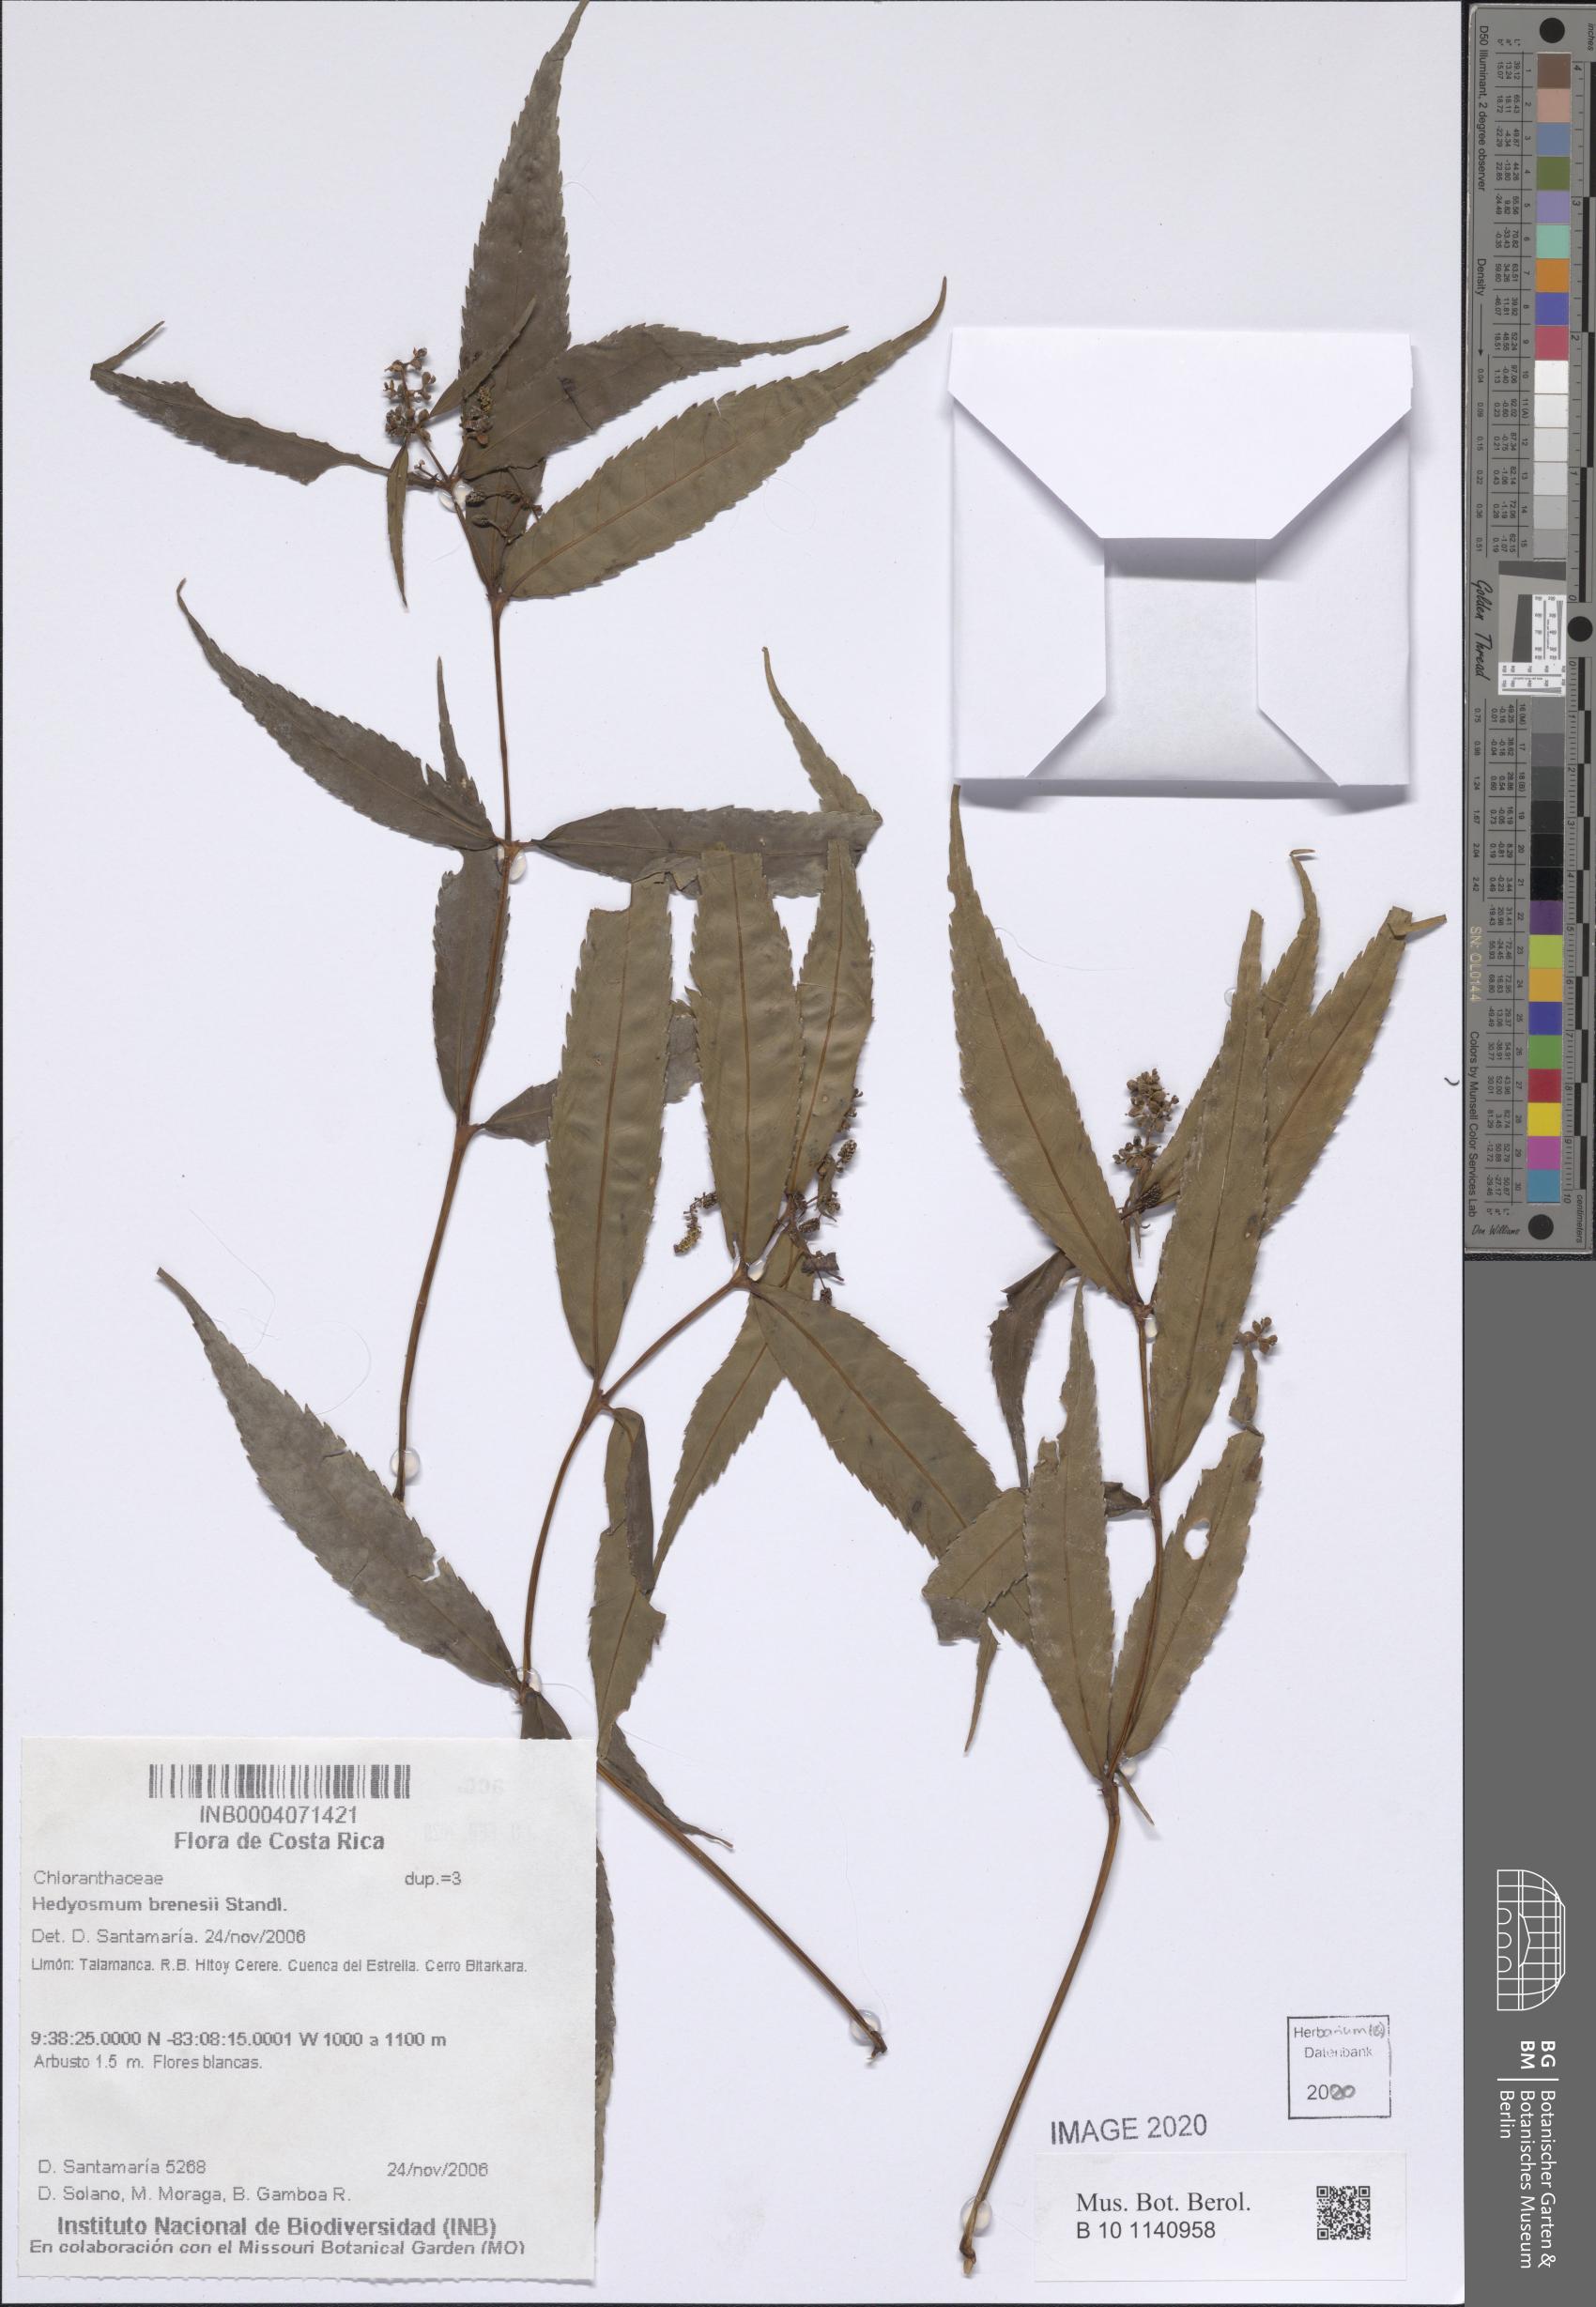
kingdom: Plantae
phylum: Tracheophyta
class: Magnoliopsida
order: Chloranthales
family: Chloranthaceae
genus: Hedyosmum
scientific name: Hedyosmum brenesii
